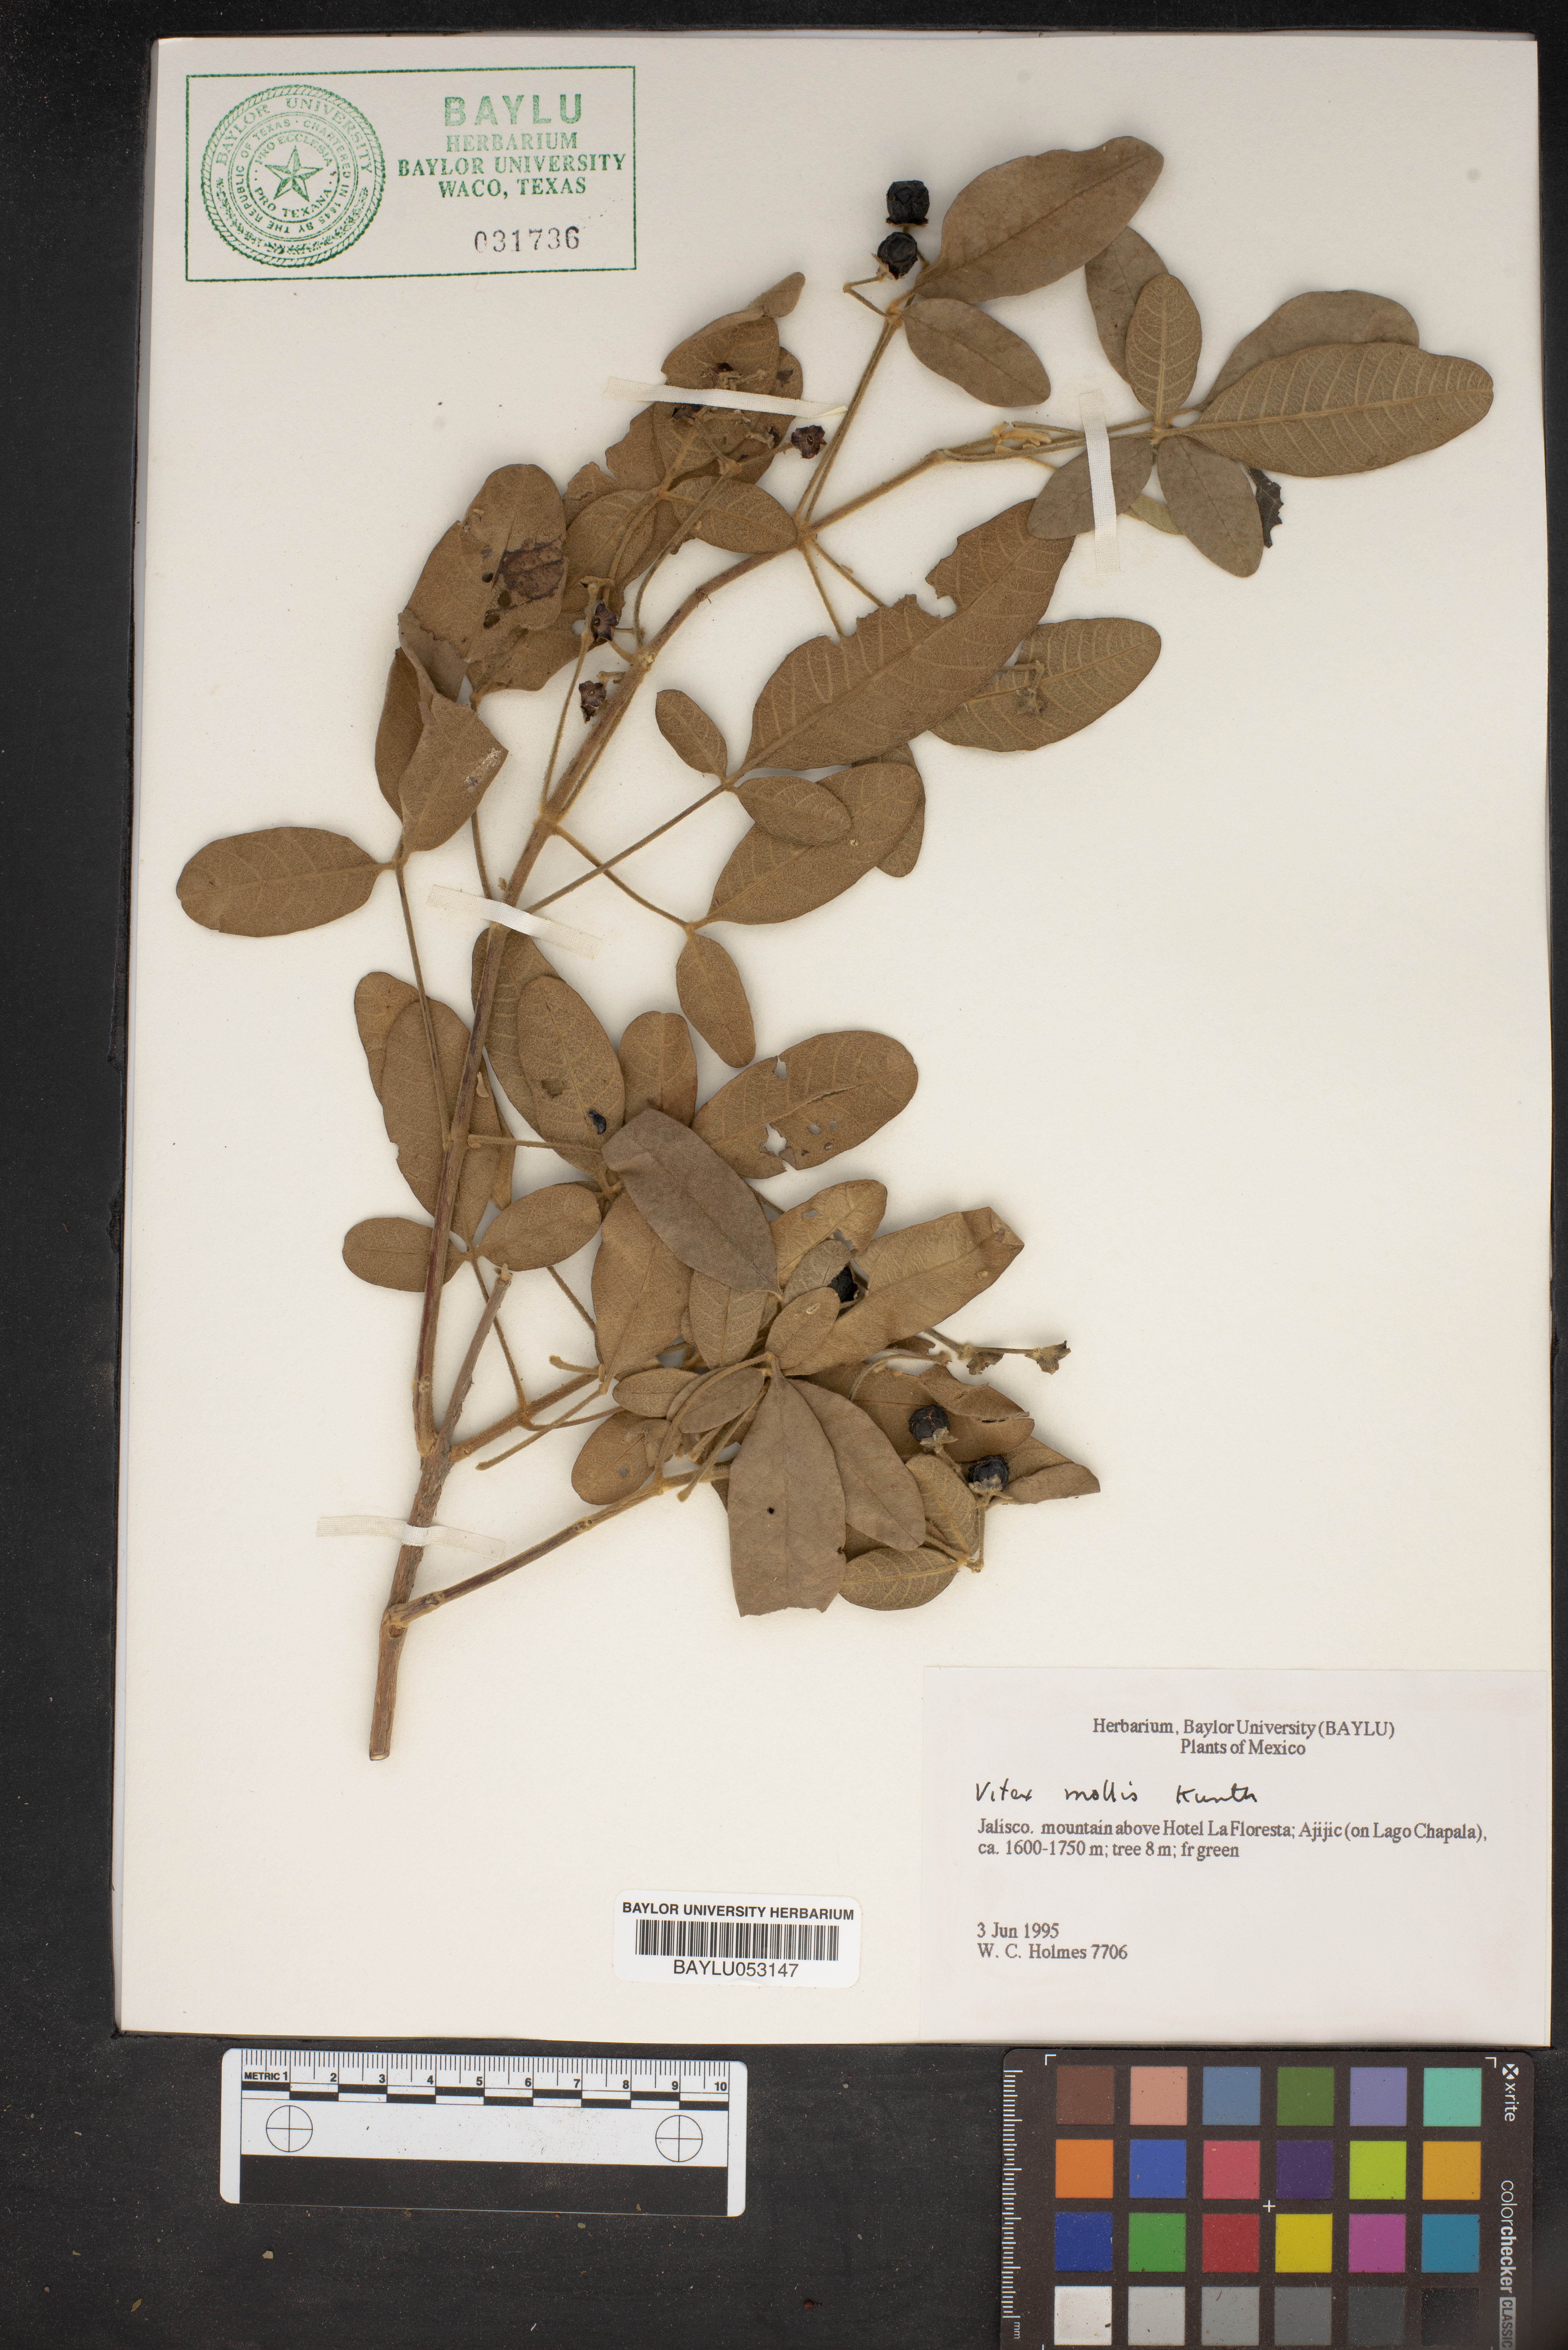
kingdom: Plantae
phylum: Tracheophyta
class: Magnoliopsida
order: Lamiales
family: Lamiaceae
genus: Vitex
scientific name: Vitex mollis
